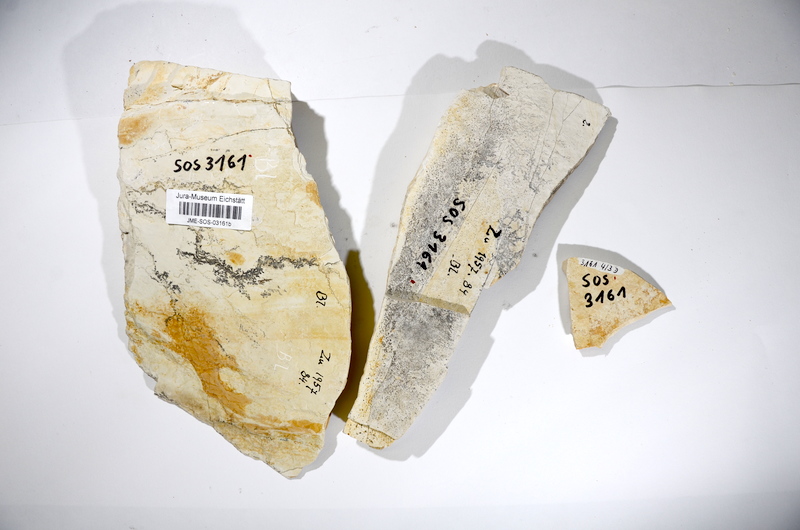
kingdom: Animalia
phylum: Chordata
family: Gyrodontidae
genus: Gyrodus
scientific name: Gyrodus circularis
